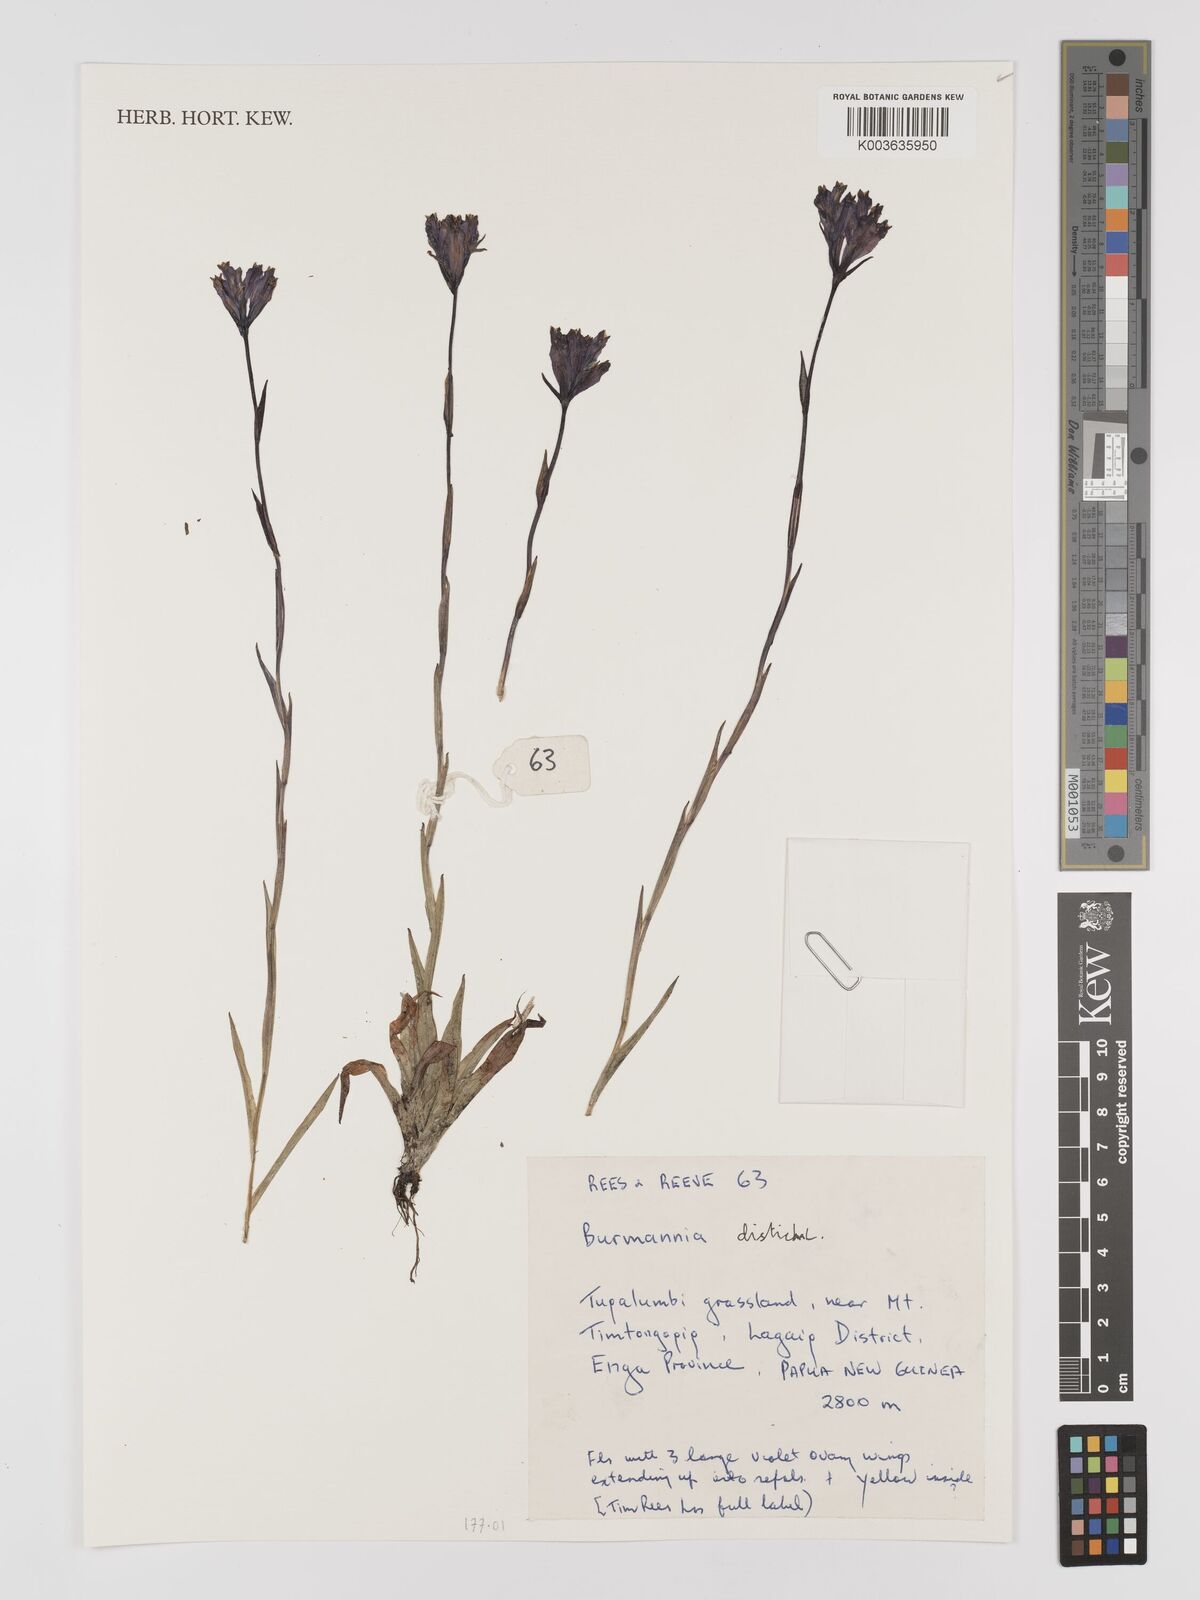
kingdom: Plantae
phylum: Tracheophyta
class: Liliopsida
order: Dioscoreales
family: Burmanniaceae
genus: Burmannia
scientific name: Burmannia disticha
